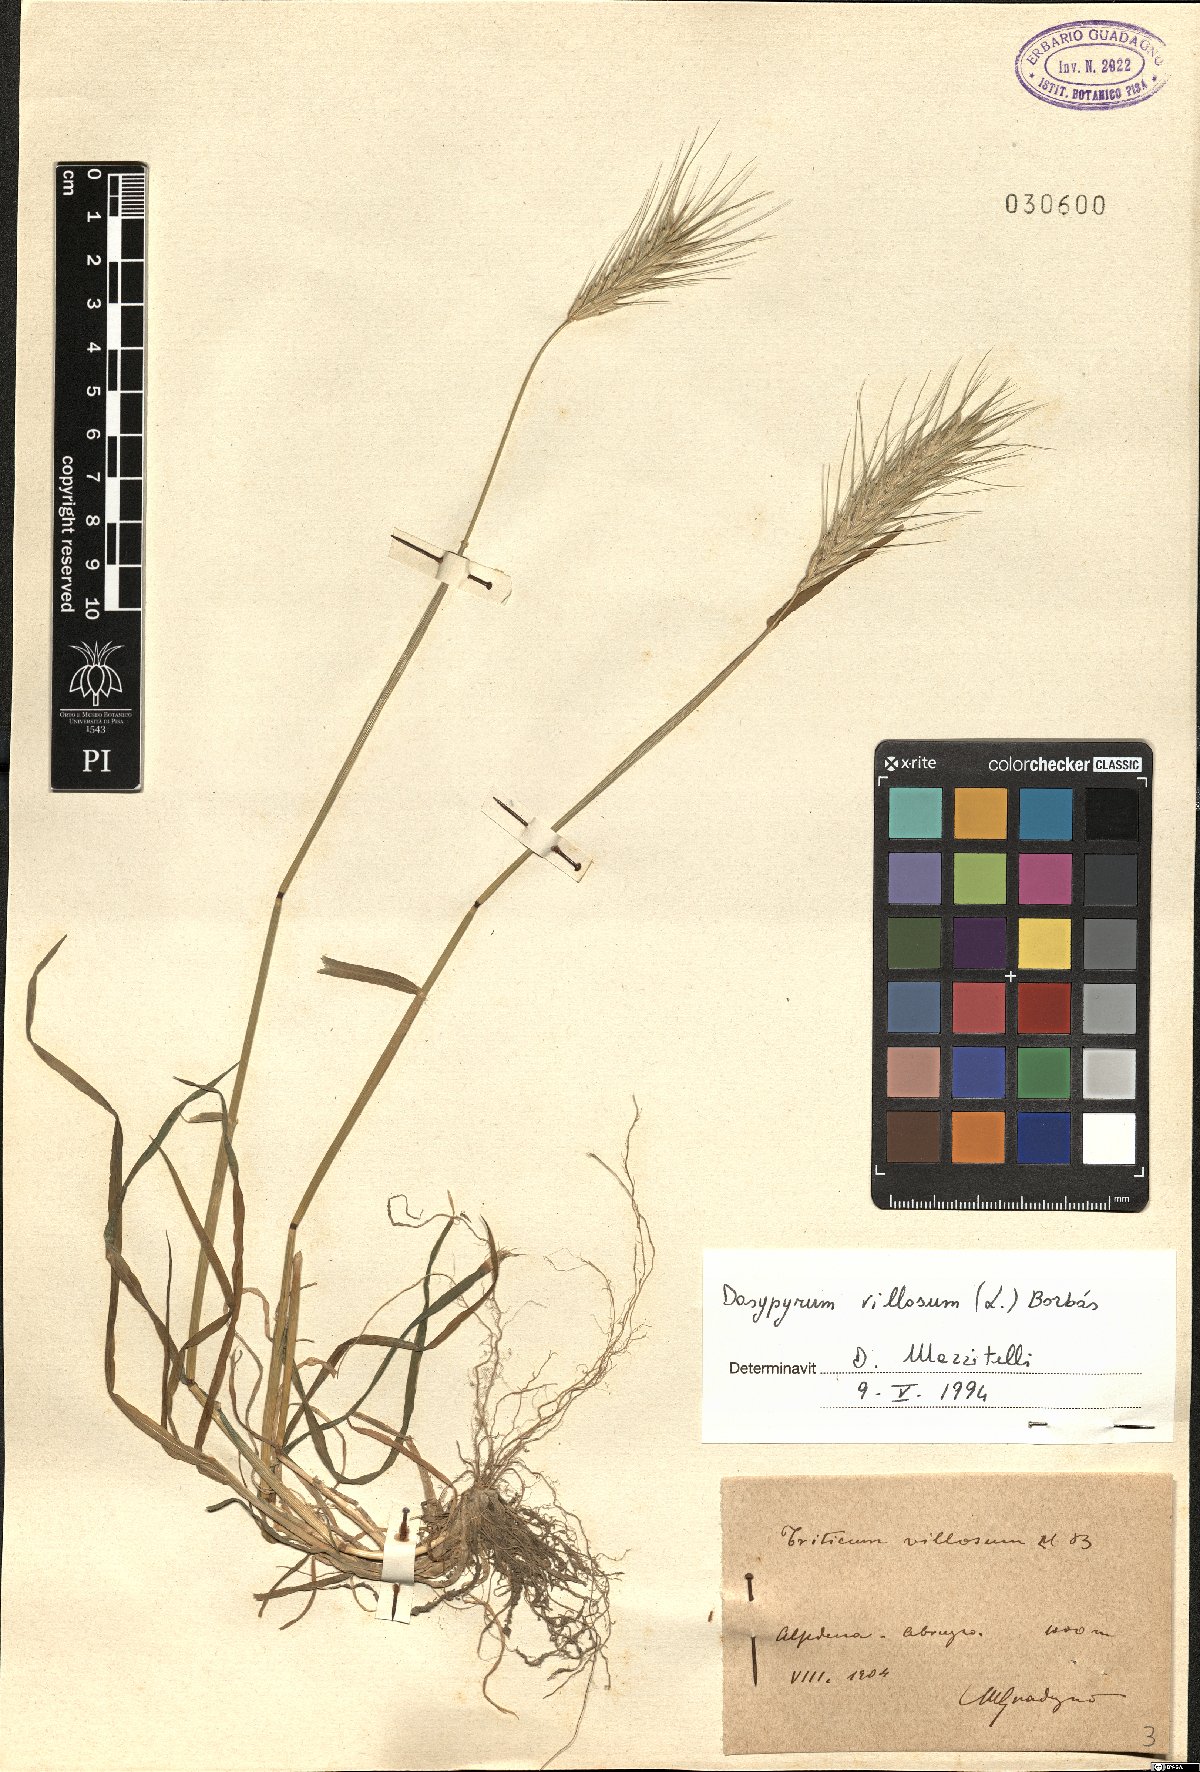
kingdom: Plantae
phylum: Tracheophyta
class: Liliopsida
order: Poales
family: Poaceae
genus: Dasypyrum
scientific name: Dasypyrum villosum
